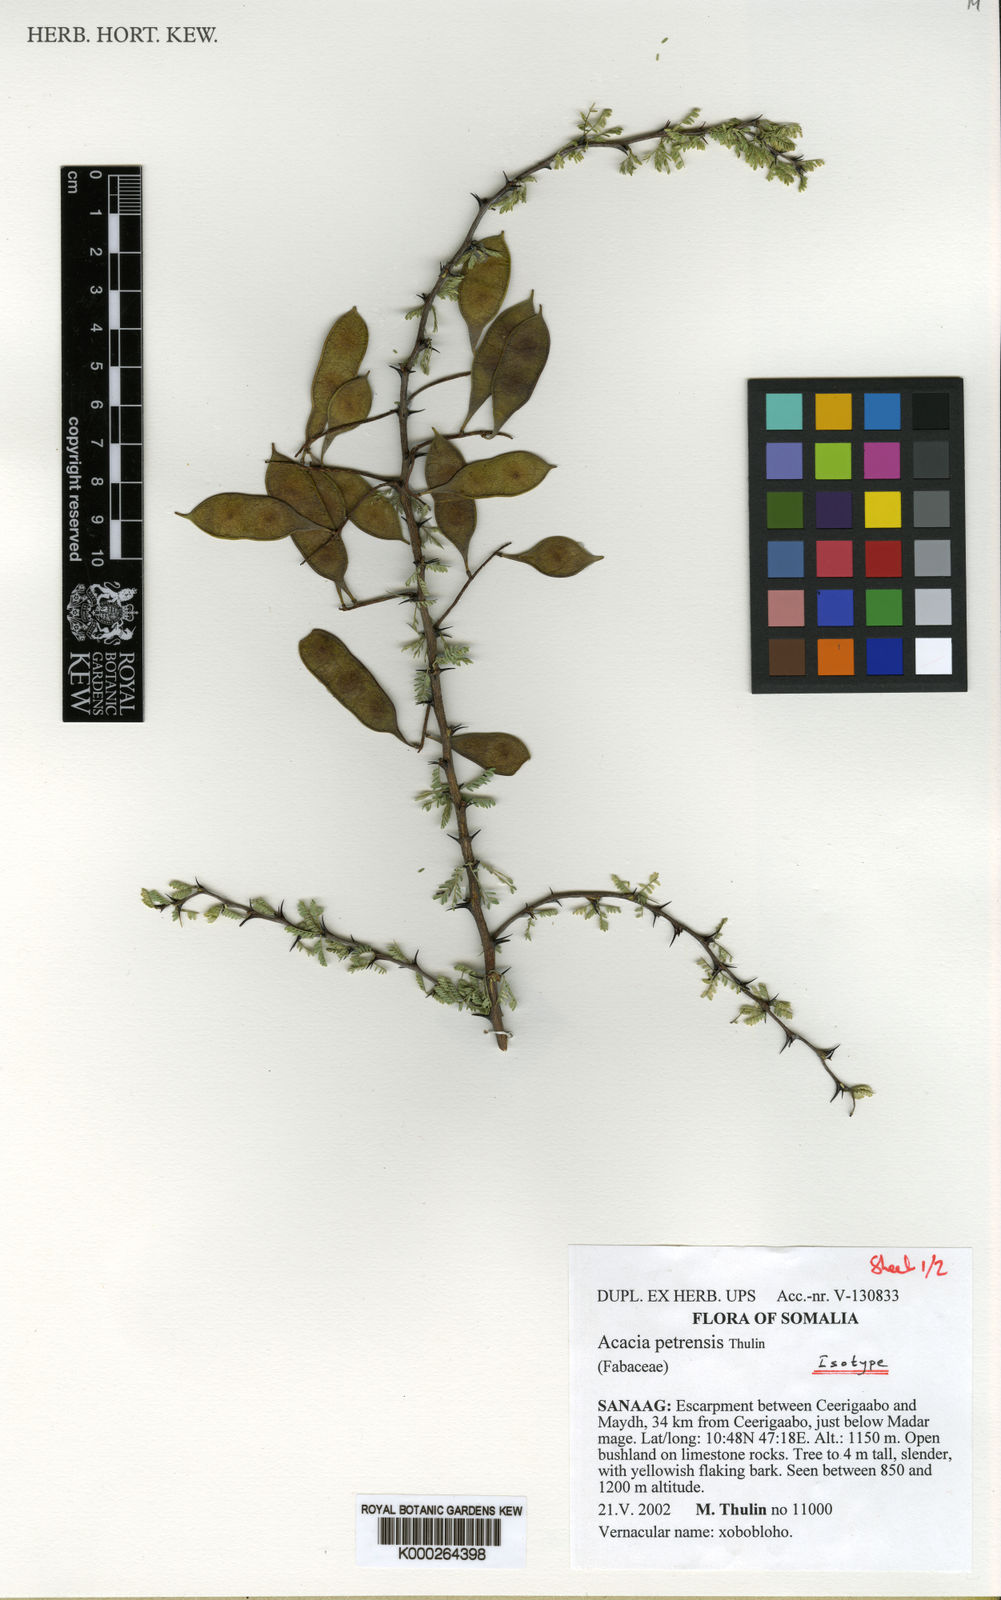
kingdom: Plantae
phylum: Tracheophyta
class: Magnoliopsida
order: Fabales
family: Fabaceae
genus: Senegalia
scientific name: Senegalia petrensis
